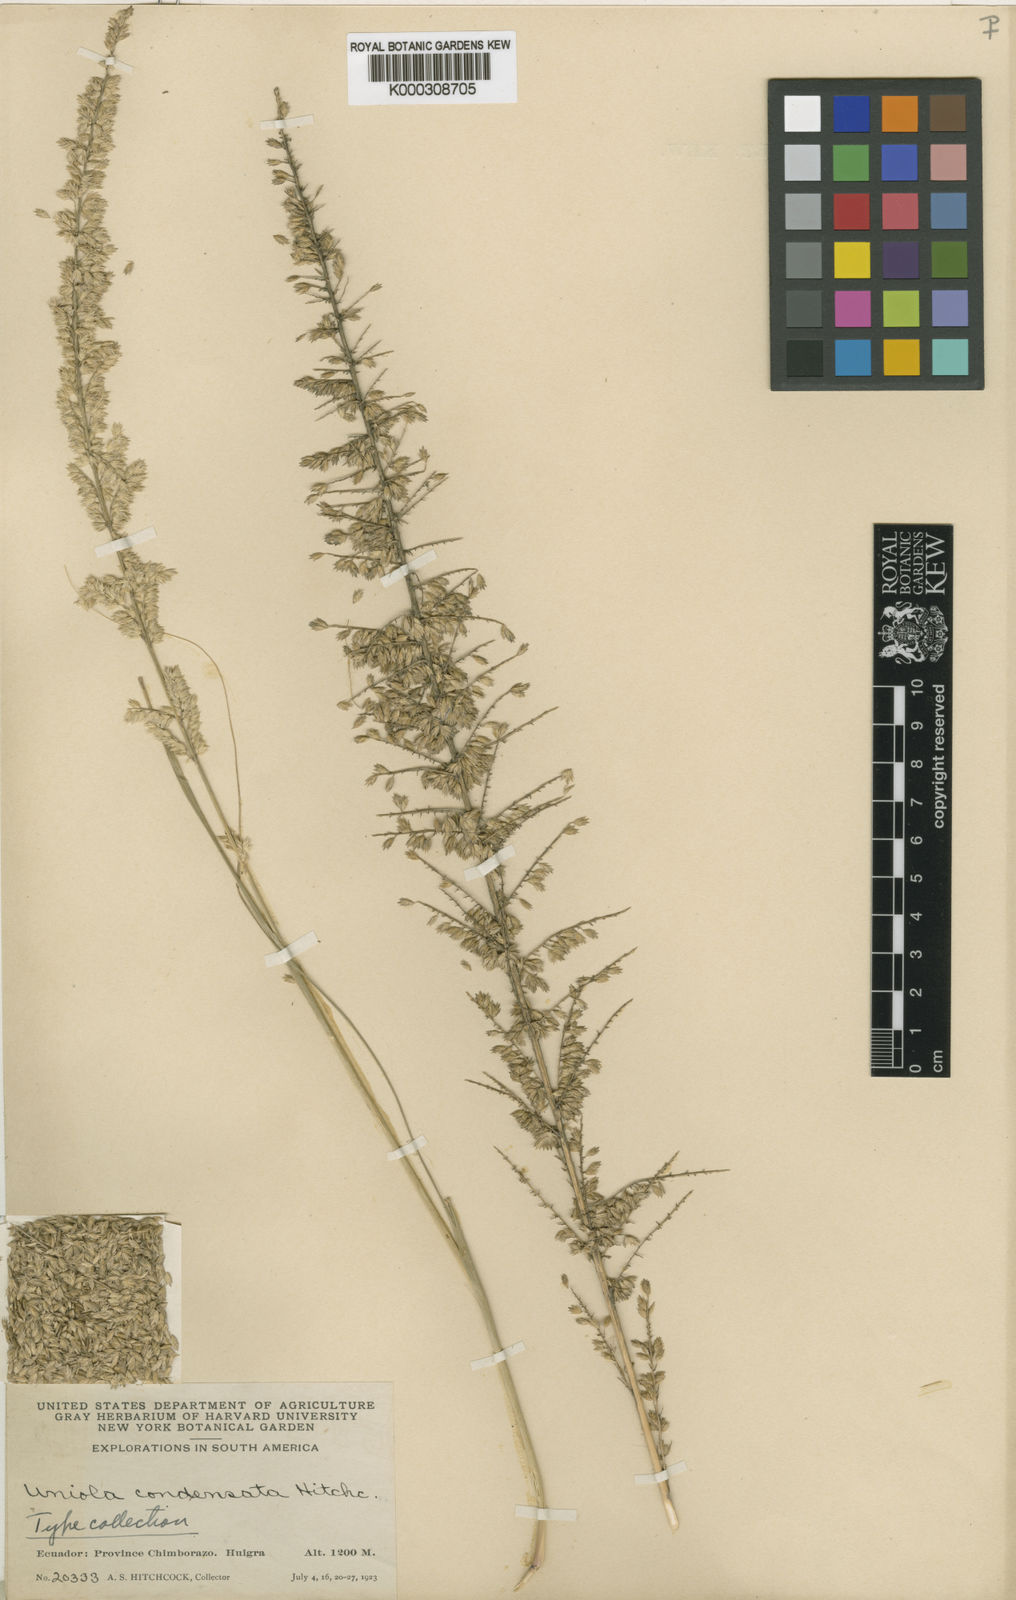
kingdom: Plantae
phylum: Tracheophyta
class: Liliopsida
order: Poales
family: Poaceae
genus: Uniola
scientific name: Uniola condensata
